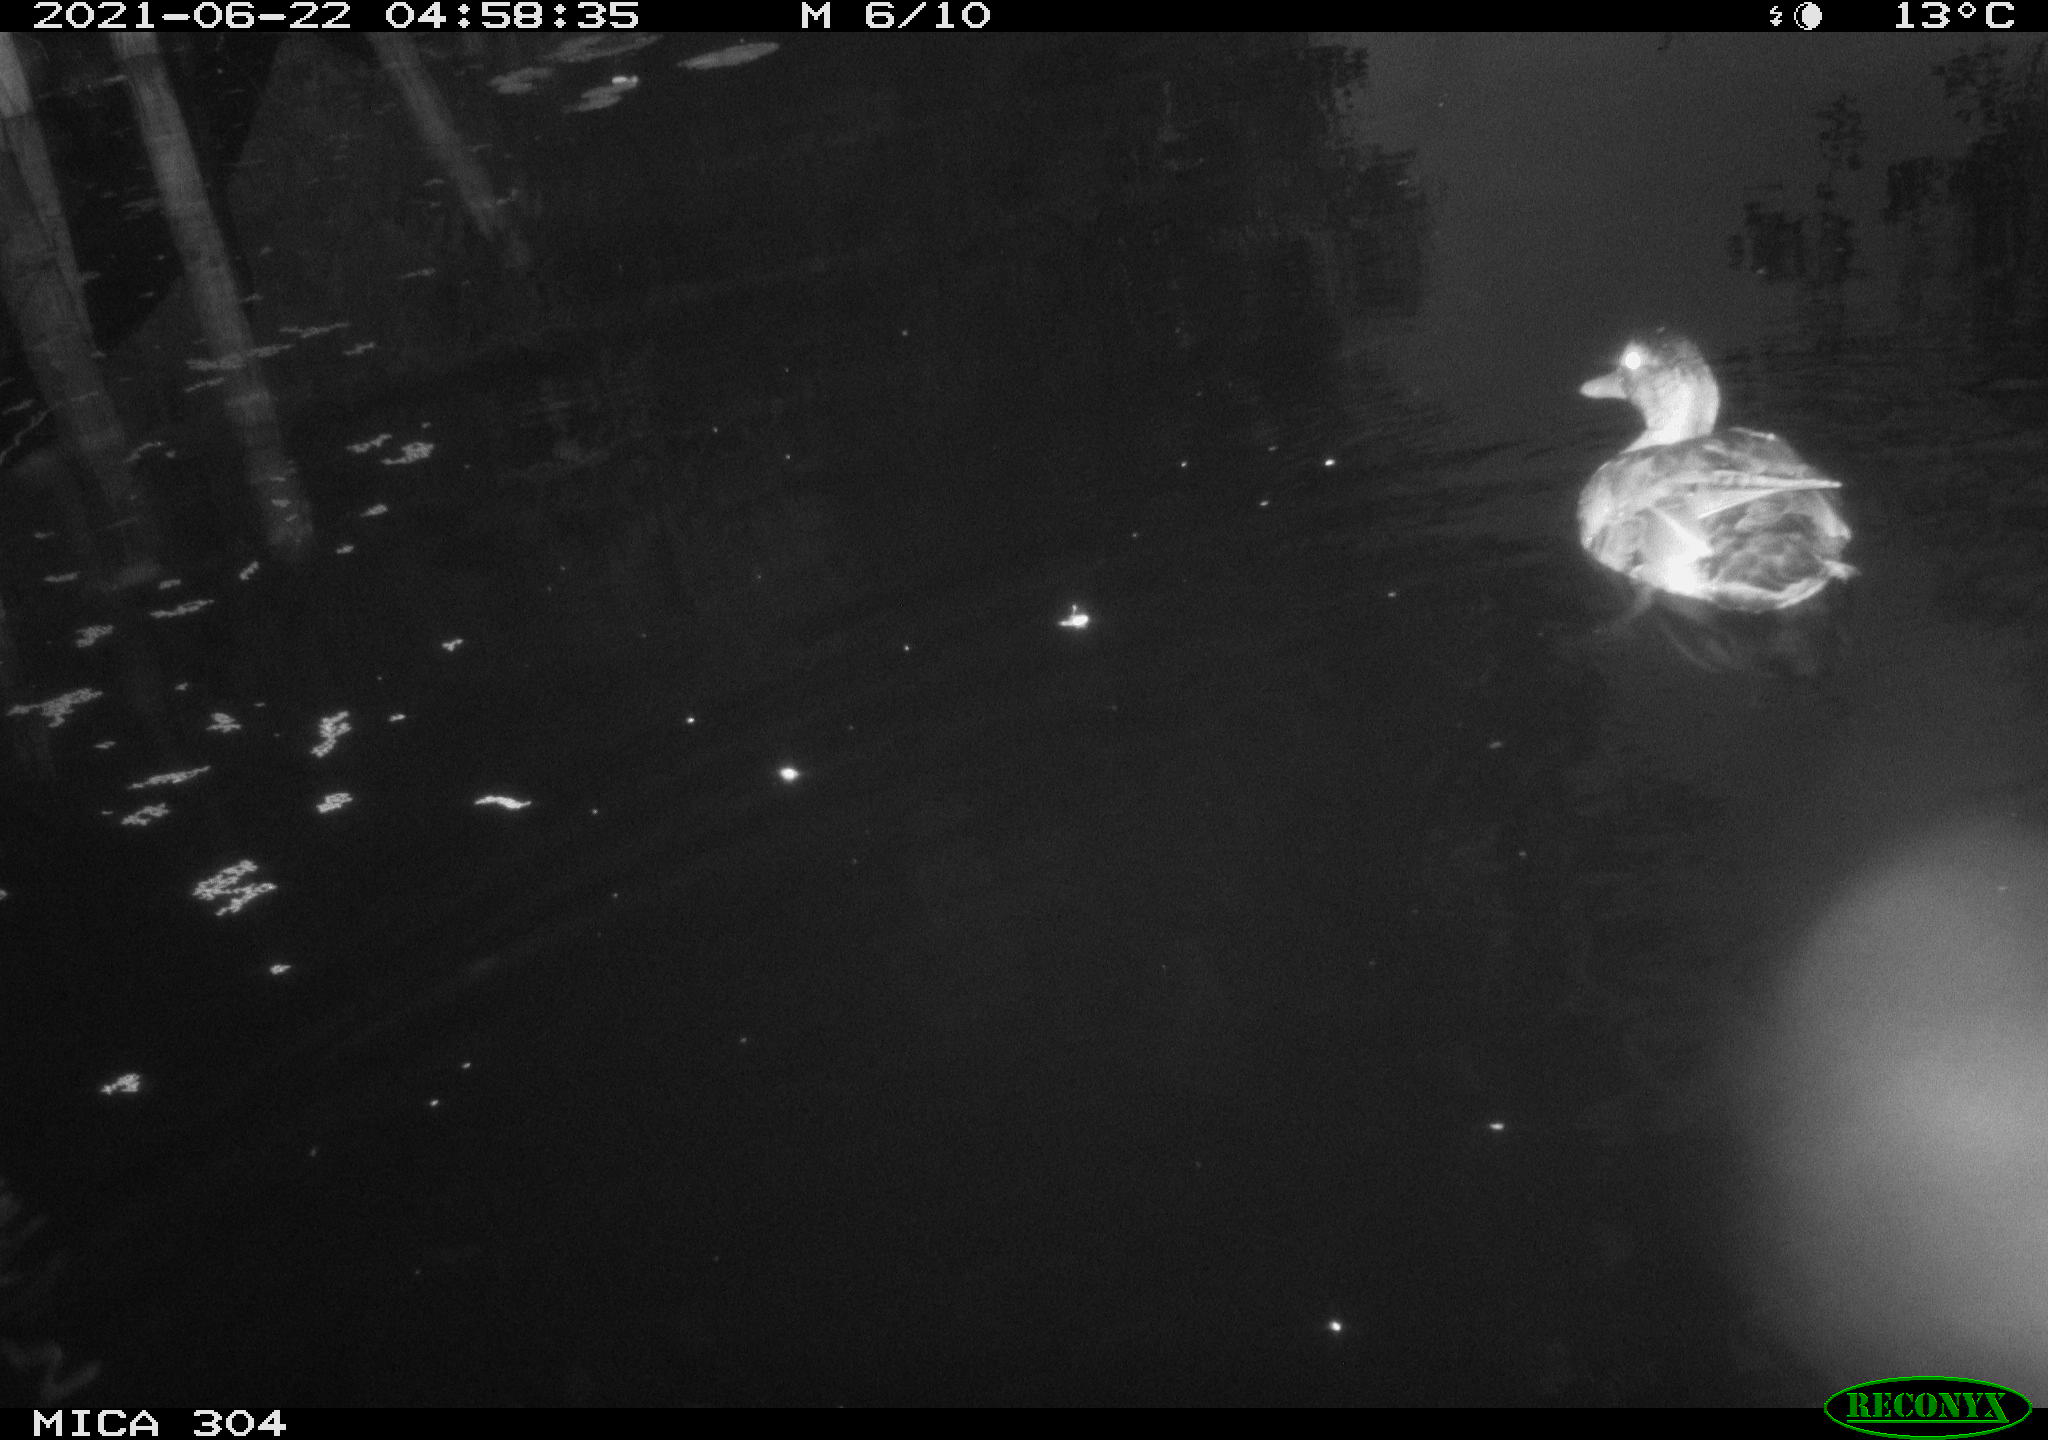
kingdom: Animalia
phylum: Chordata
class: Aves
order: Anseriformes
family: Anatidae
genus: Anas
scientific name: Anas platyrhynchos
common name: Mallard
